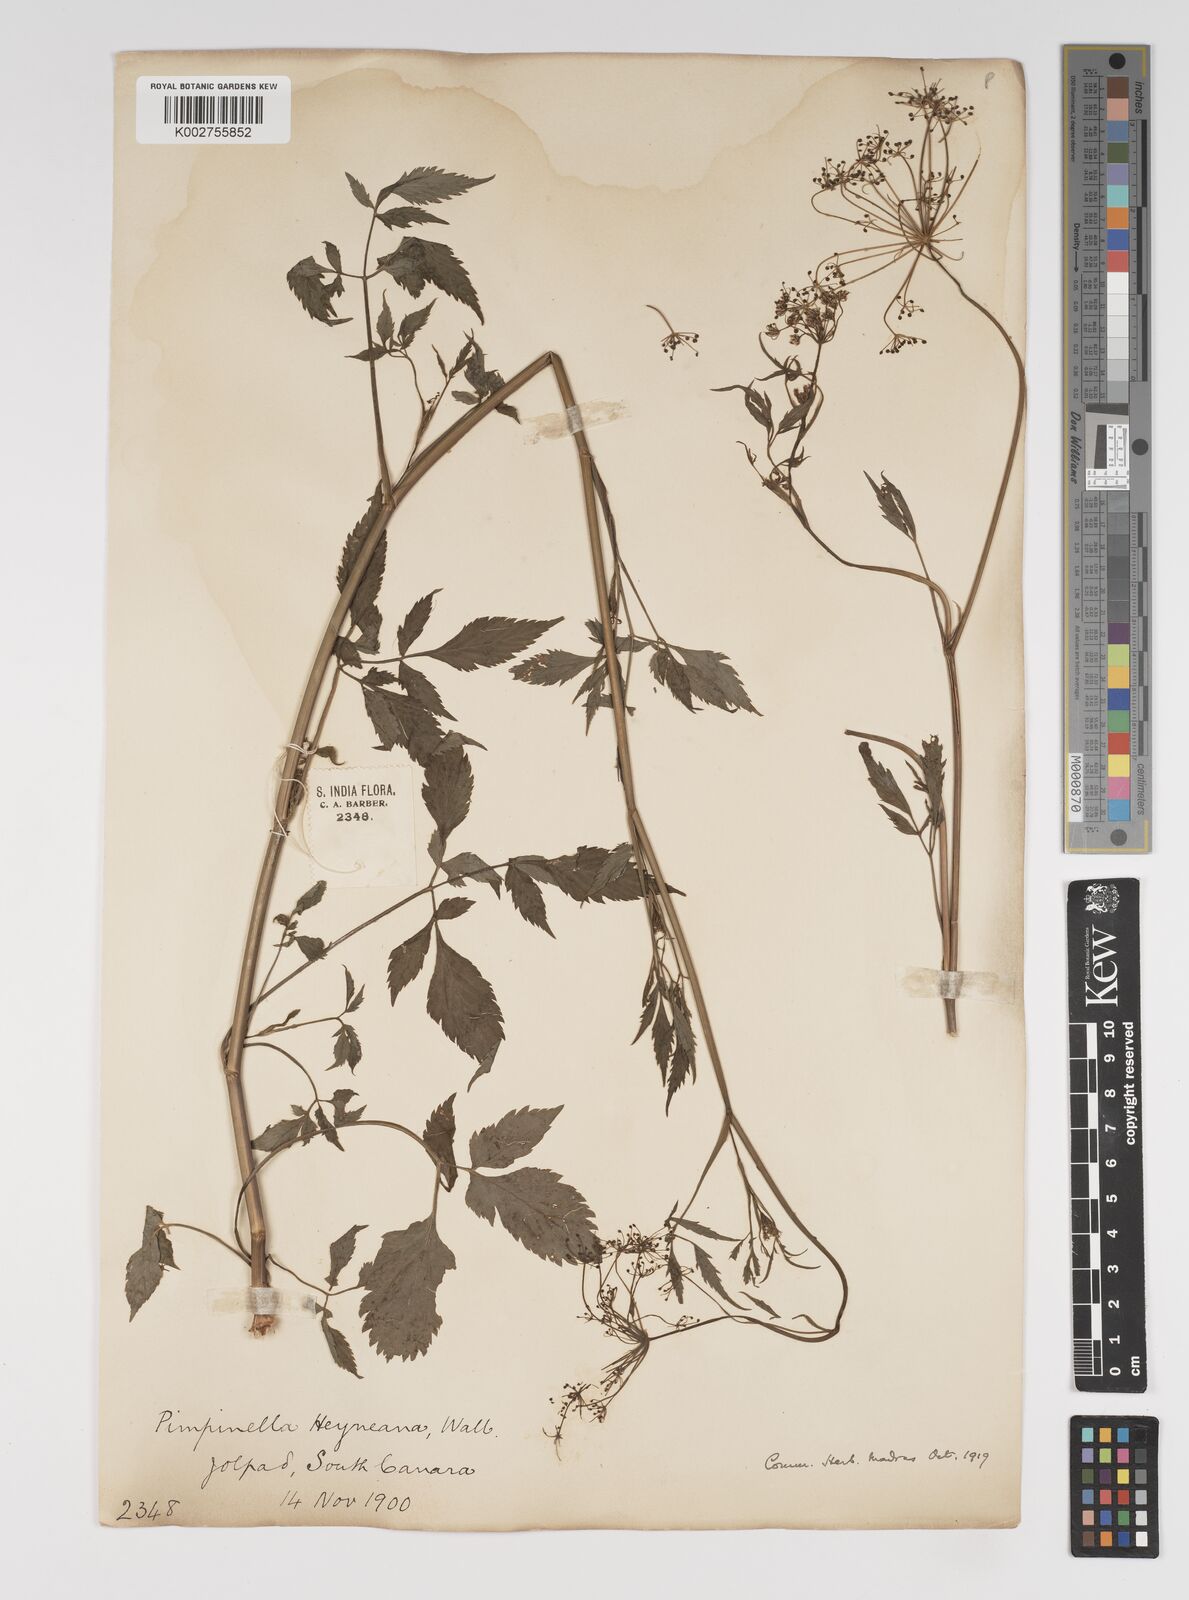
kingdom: Plantae
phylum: Tracheophyta
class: Magnoliopsida
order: Apiales
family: Apiaceae
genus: Pimpinella
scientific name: Pimpinella heyneana
